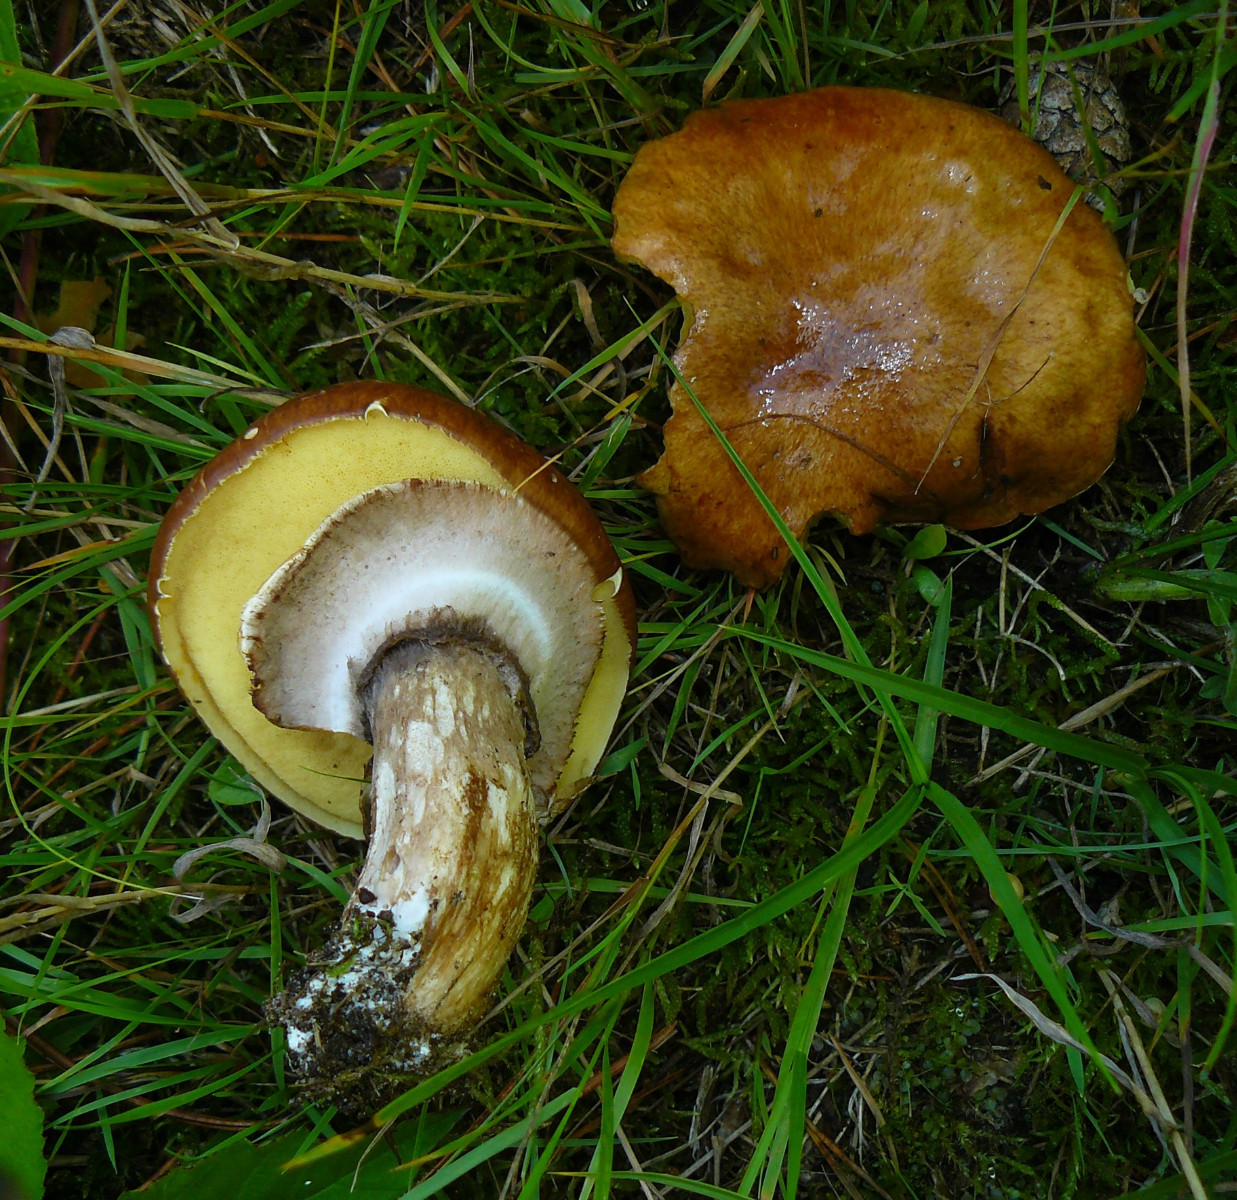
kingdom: Fungi
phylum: Basidiomycota
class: Agaricomycetes
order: Boletales
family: Suillaceae
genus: Suillus
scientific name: Suillus luteus
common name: brungul slimrørhat
